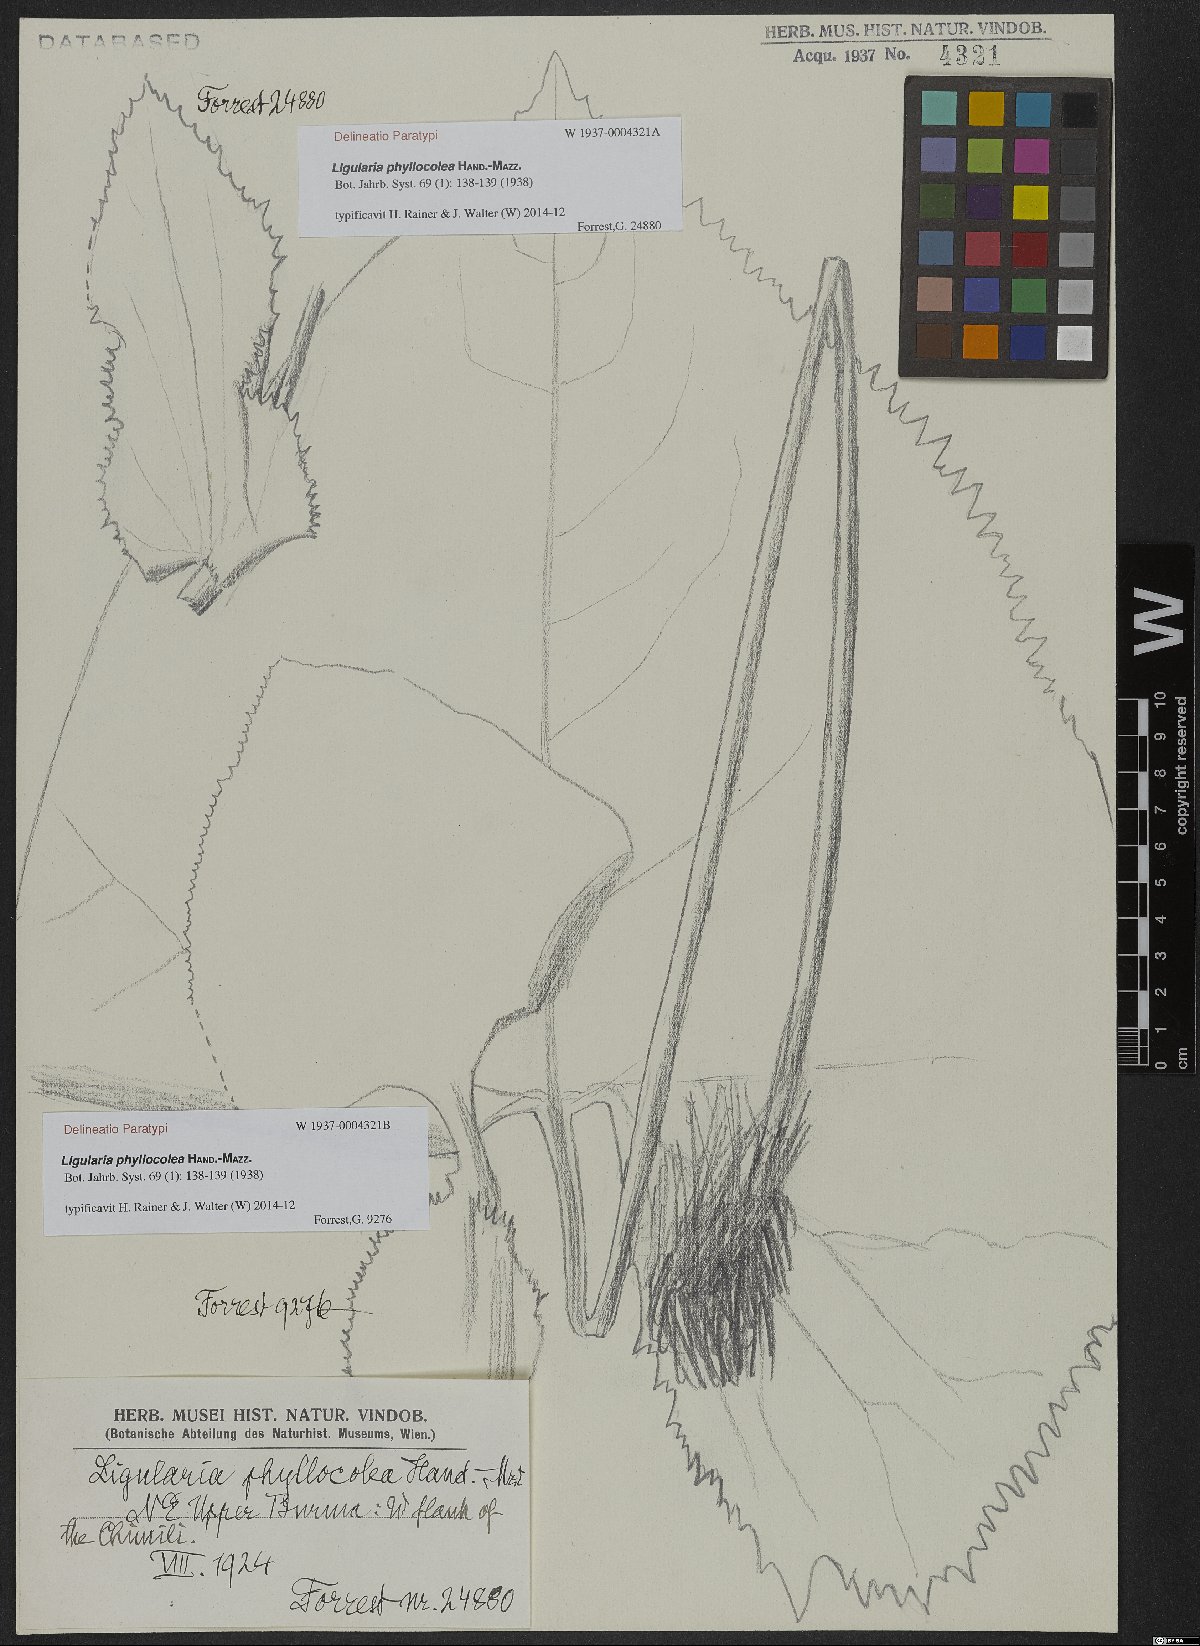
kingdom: Plantae
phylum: Tracheophyta
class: Magnoliopsida
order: Asterales
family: Asteraceae
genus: Ligularia
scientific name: Ligularia phyllocolea
